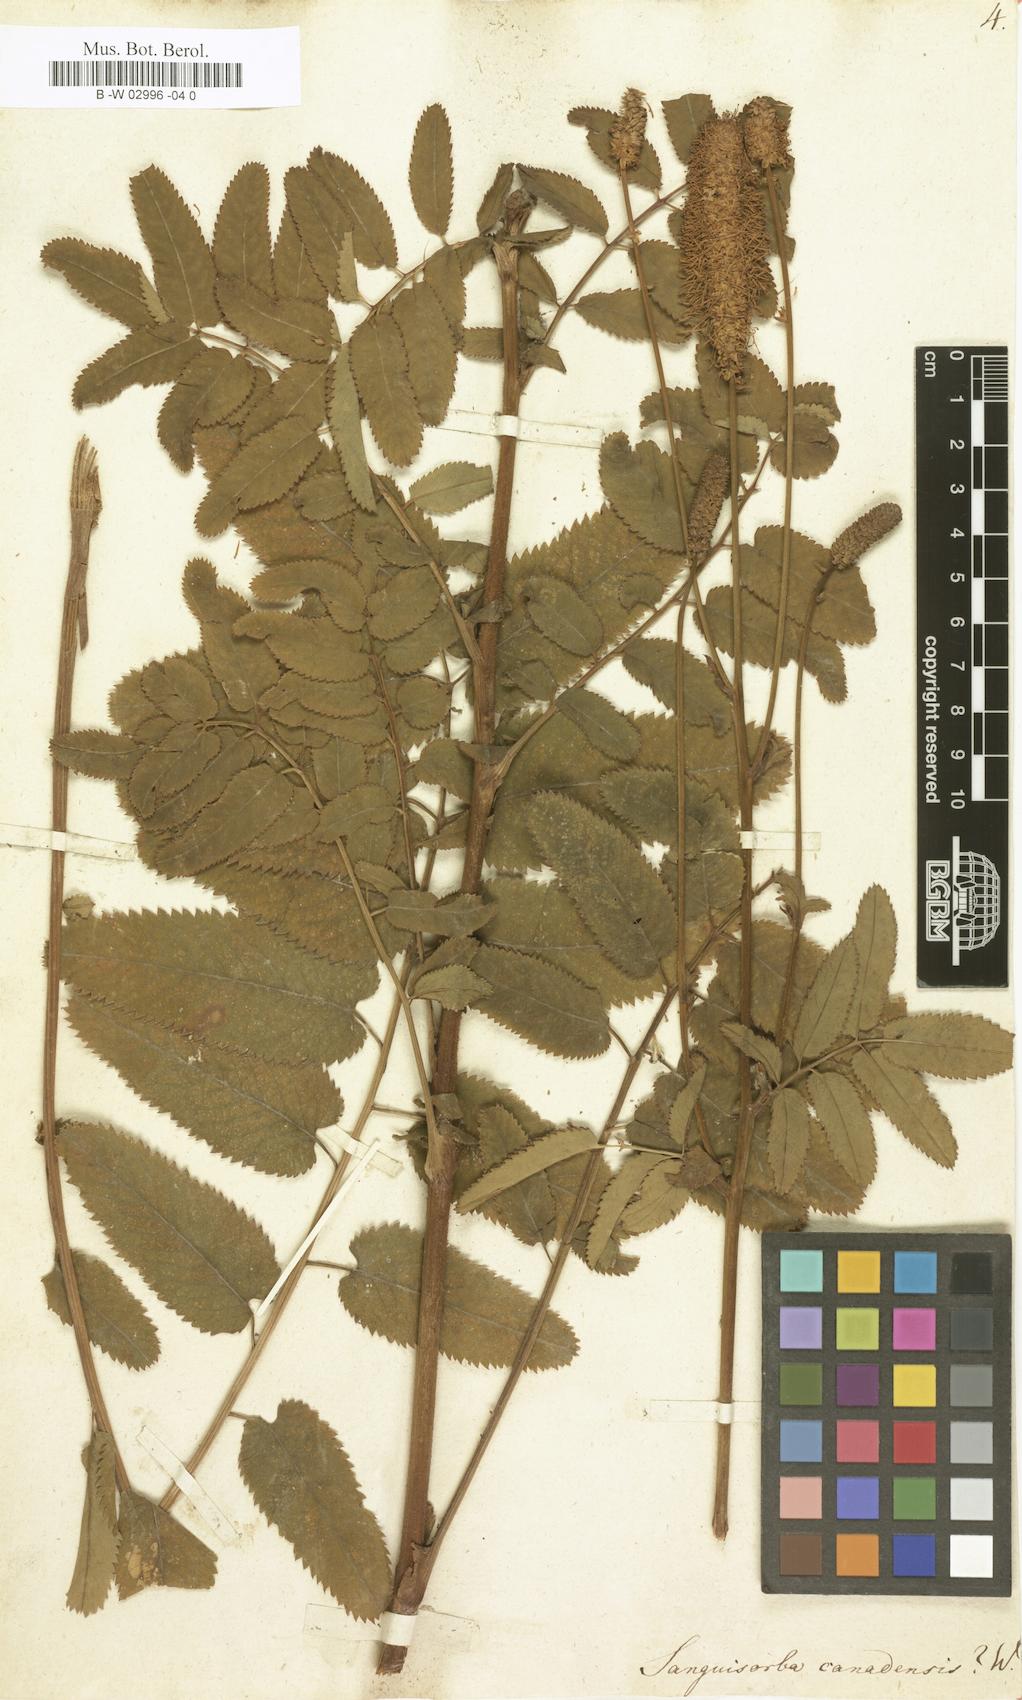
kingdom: Plantae
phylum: Tracheophyta
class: Magnoliopsida
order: Rosales
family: Rosaceae
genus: Sanguisorba
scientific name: Sanguisorba canadensis
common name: White burnet
